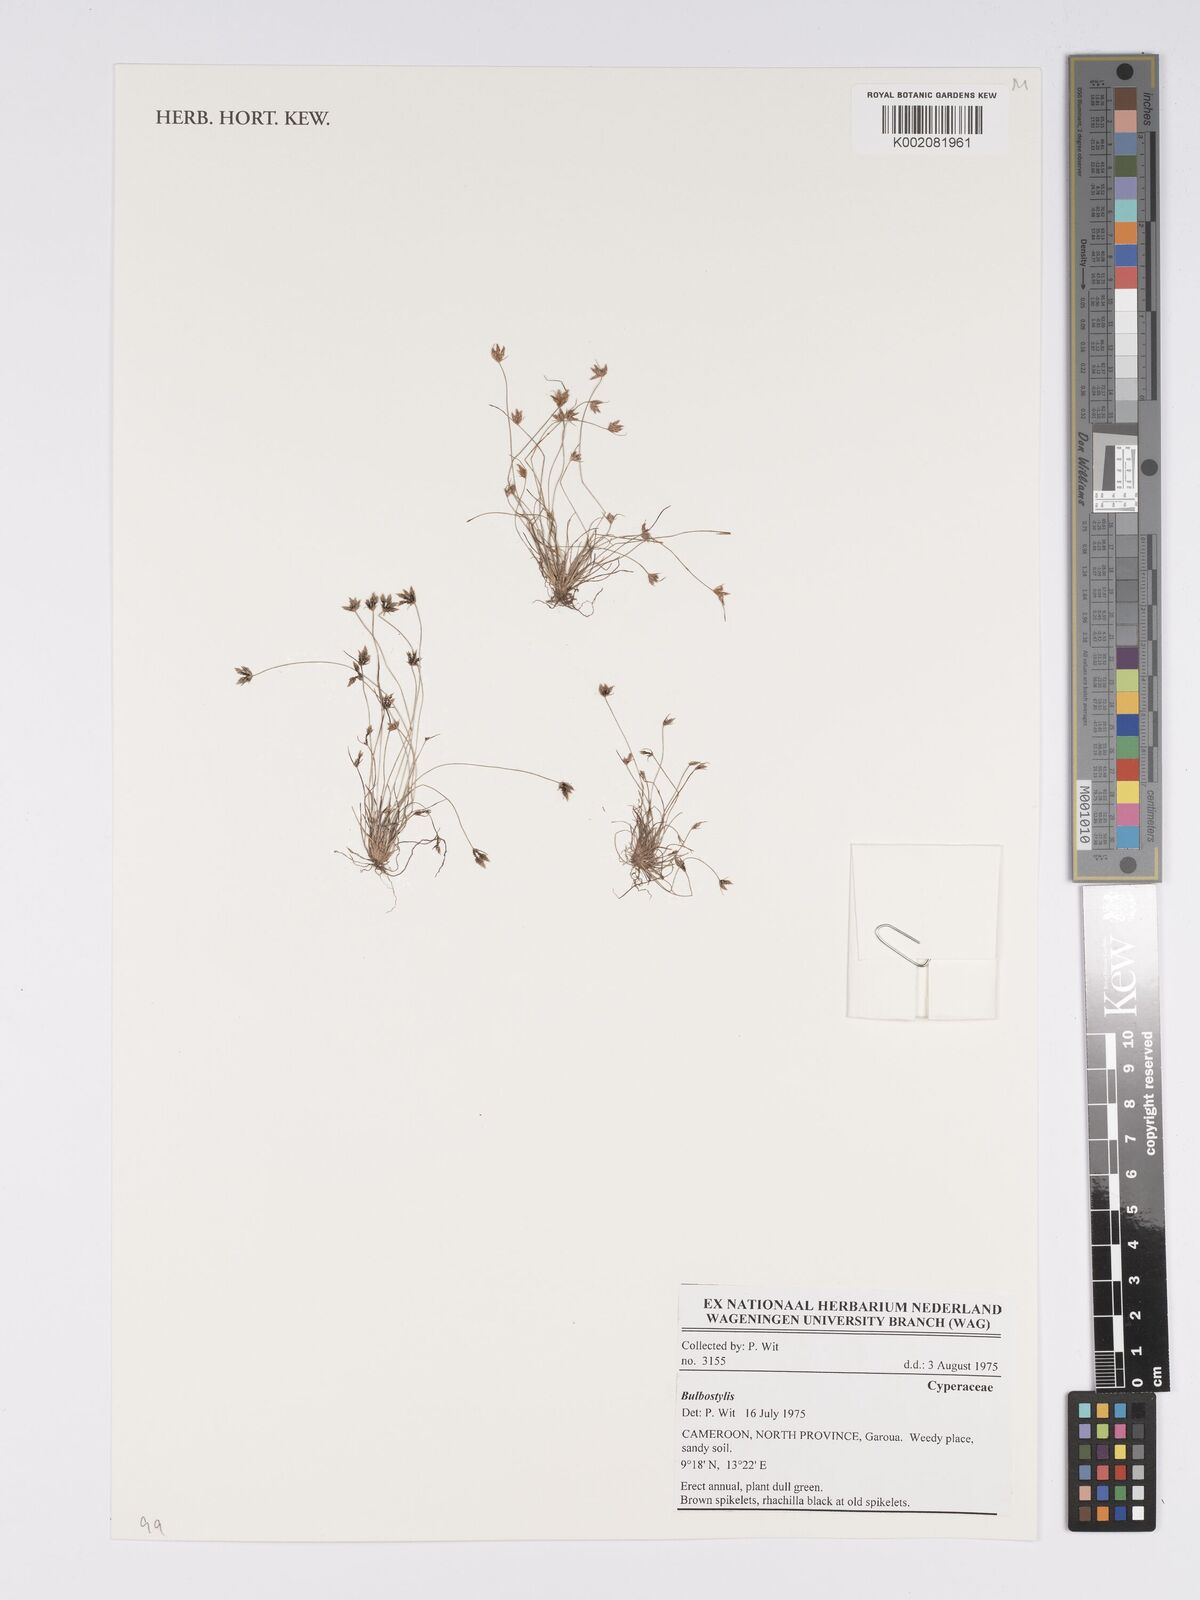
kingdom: Plantae
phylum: Tracheophyta
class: Magnoliopsida
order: Asterales
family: Asteraceae
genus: Bulbostylis
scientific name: Bulbostylis
